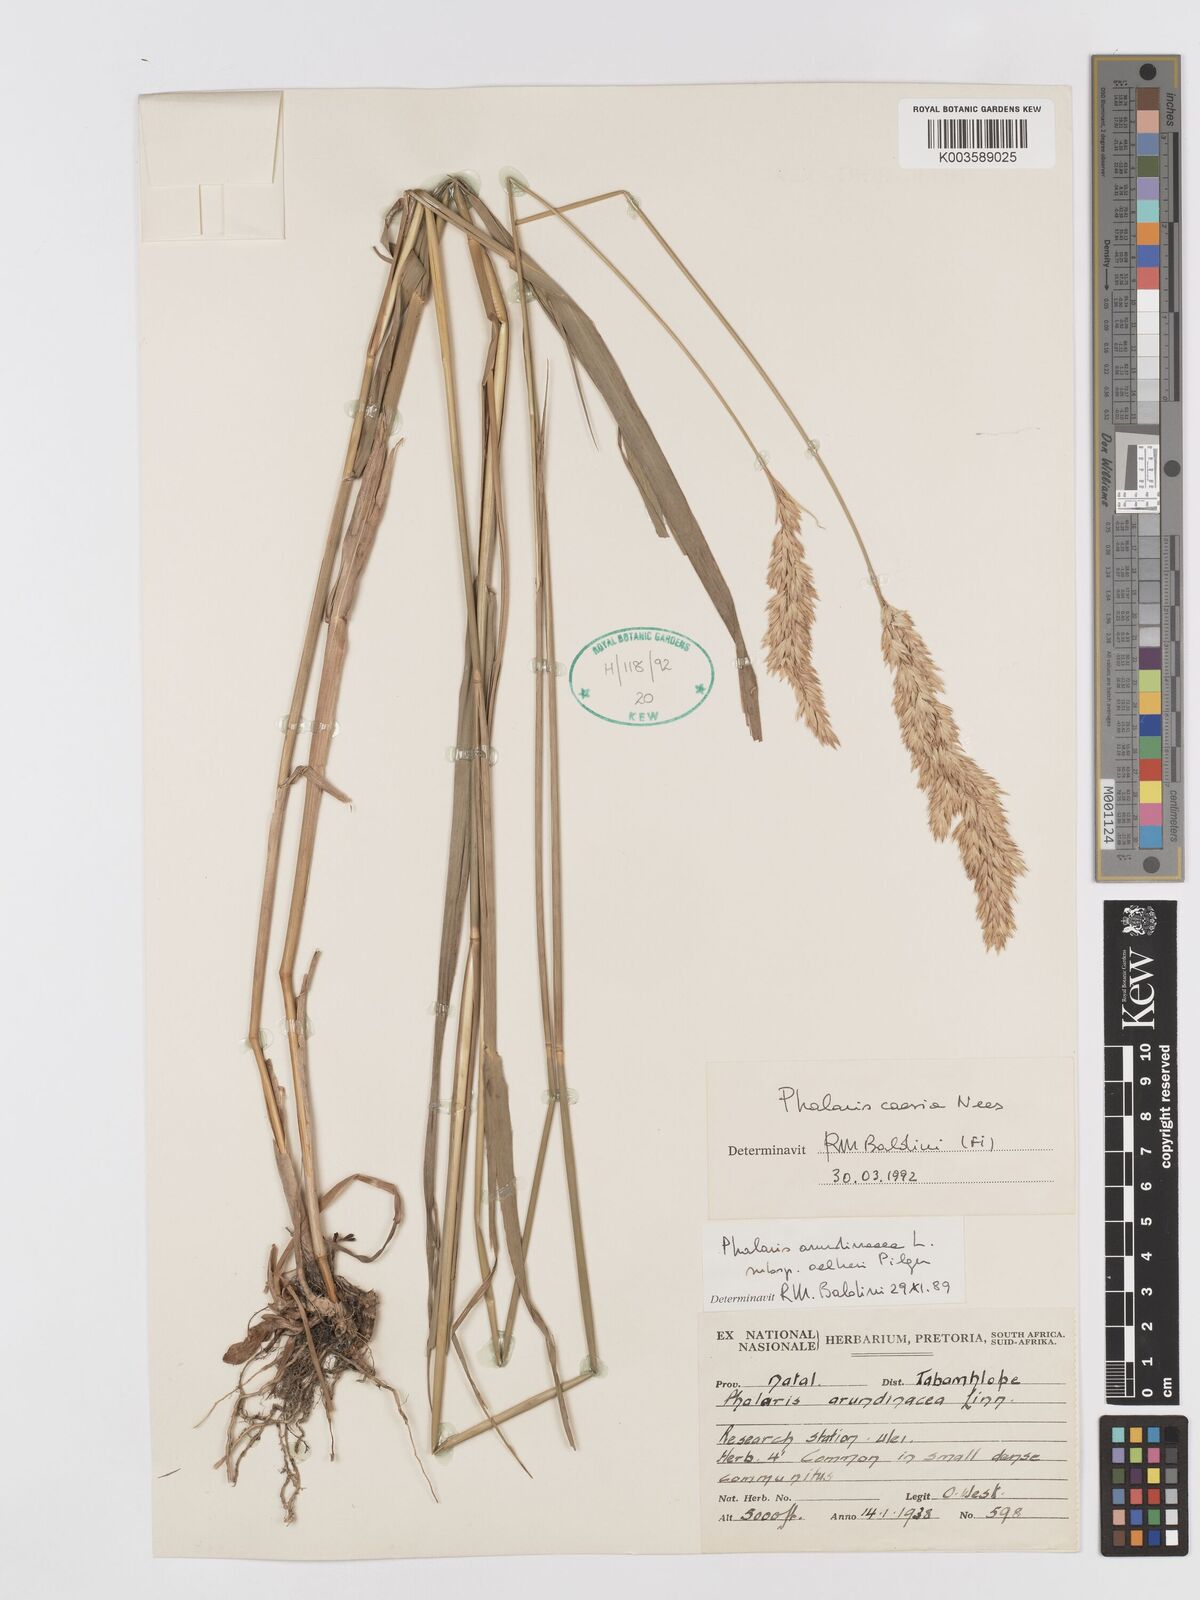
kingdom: Plantae
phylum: Tracheophyta
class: Liliopsida
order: Poales
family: Poaceae
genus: Phalaris
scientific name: Phalaris arundinacea
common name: Reed canary-grass
